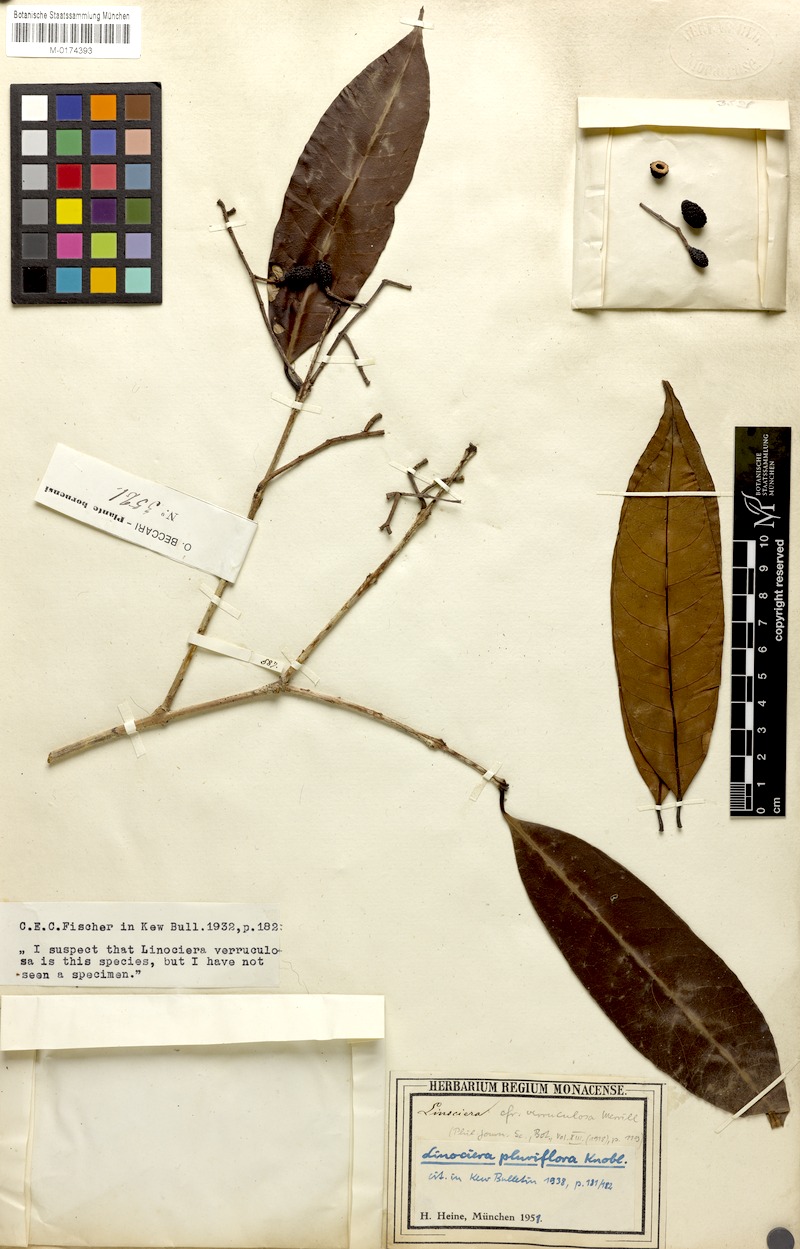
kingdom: Plantae
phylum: Tracheophyta
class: Magnoliopsida
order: Lamiales
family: Oleaceae
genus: Chionanthus
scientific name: Chionanthus pluriflorus
